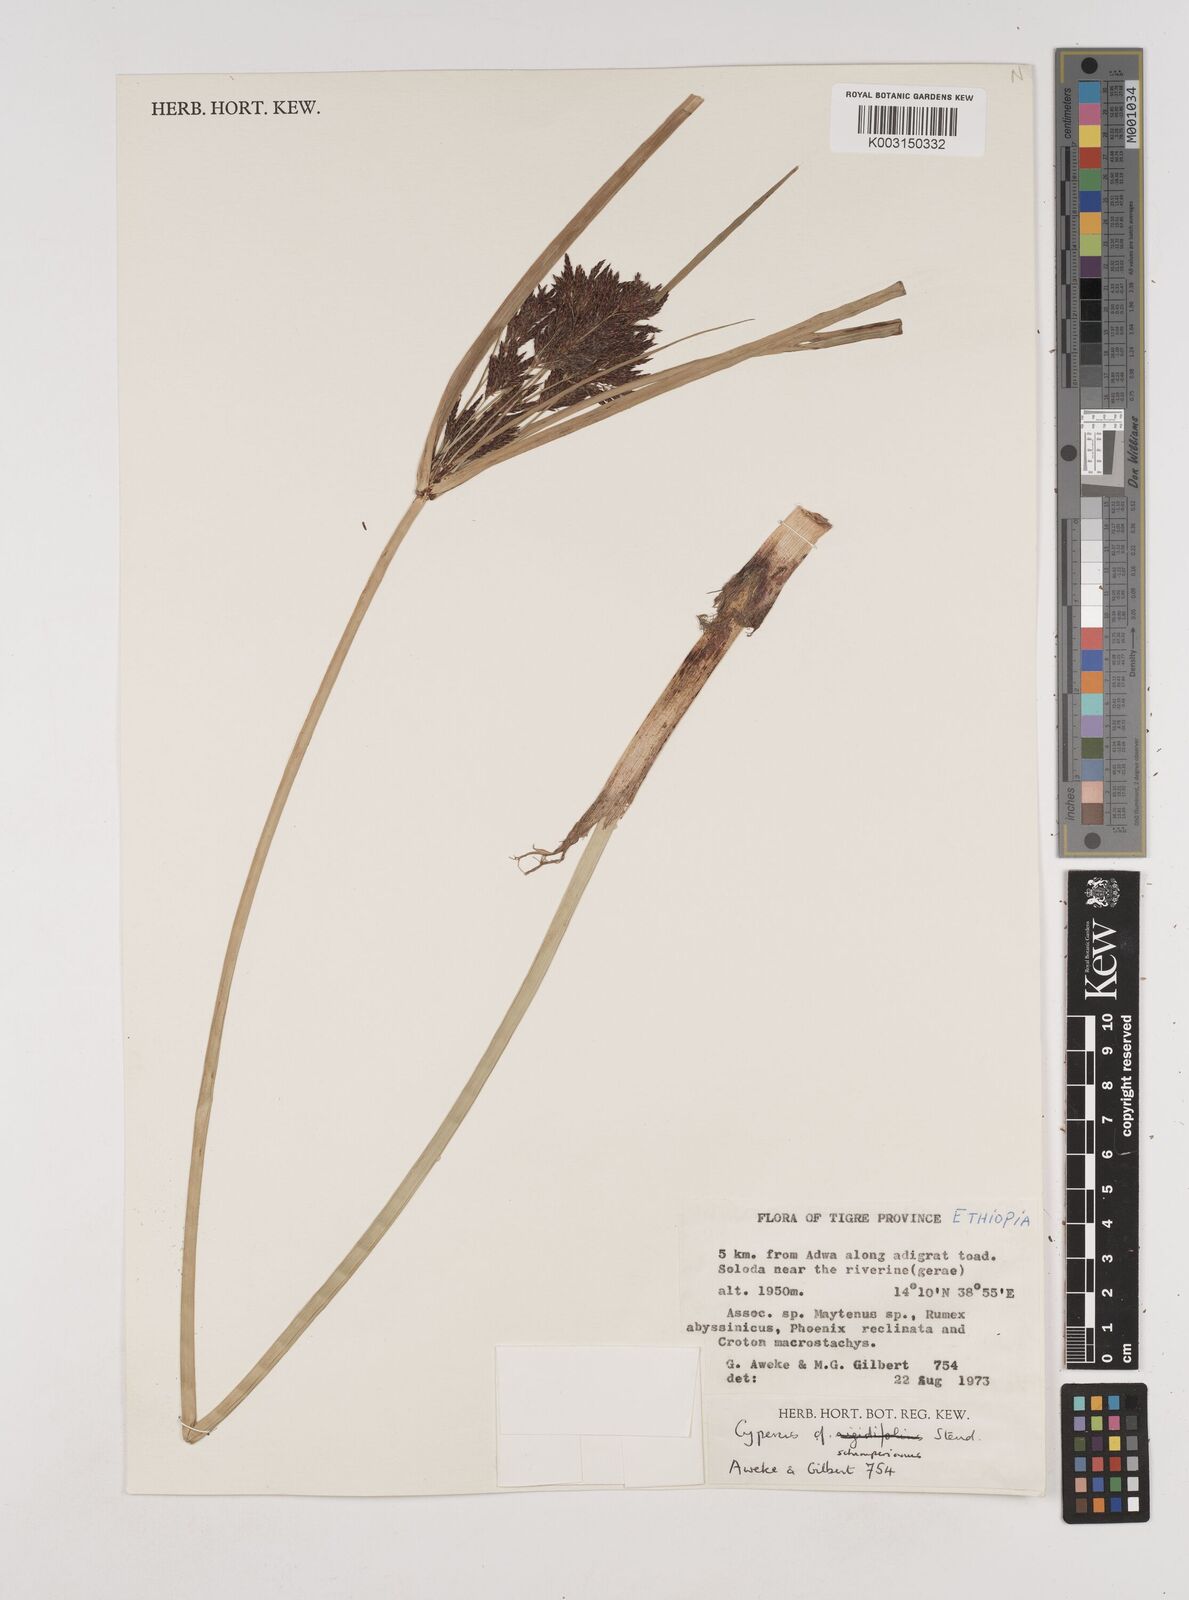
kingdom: Plantae
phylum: Tracheophyta
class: Liliopsida
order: Poales
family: Cyperaceae
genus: Cyperus
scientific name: Cyperus schimperianus
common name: Schimper flatsedge
